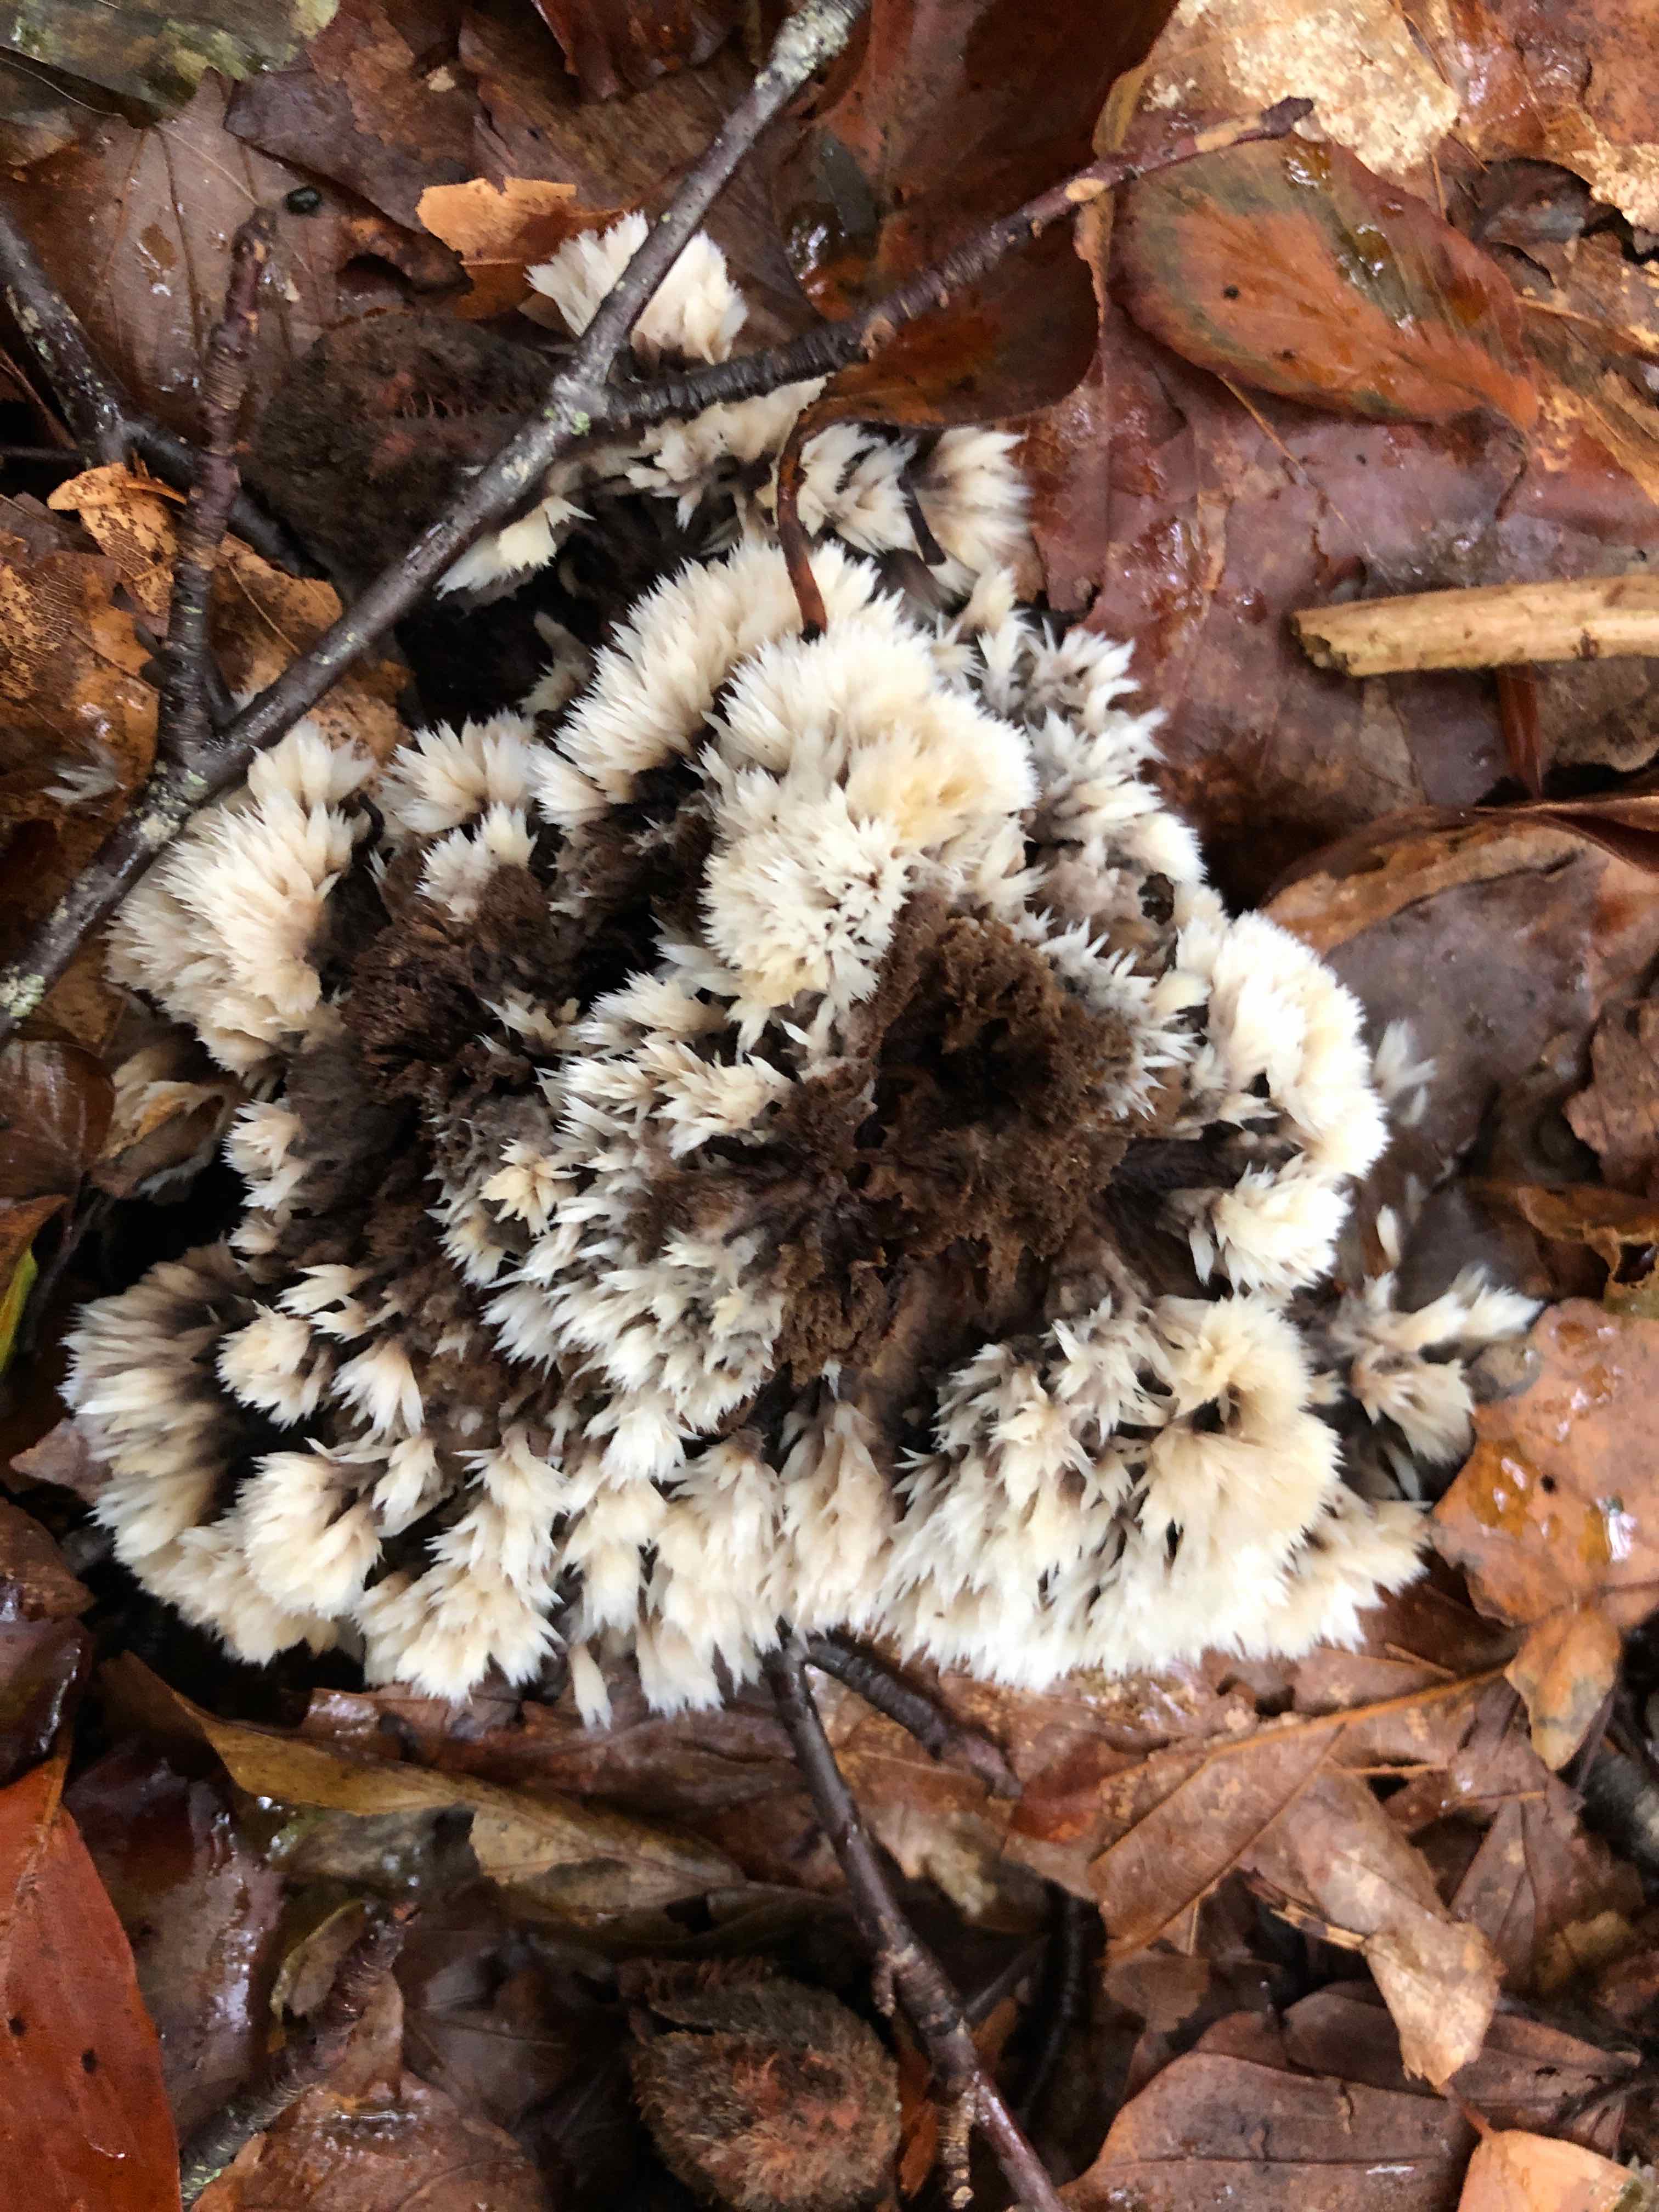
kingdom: Fungi
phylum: Basidiomycota
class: Agaricomycetes
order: Thelephorales
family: Thelephoraceae
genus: Thelephora
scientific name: Thelephora penicillata
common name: fladtrådt frynsesvamp
